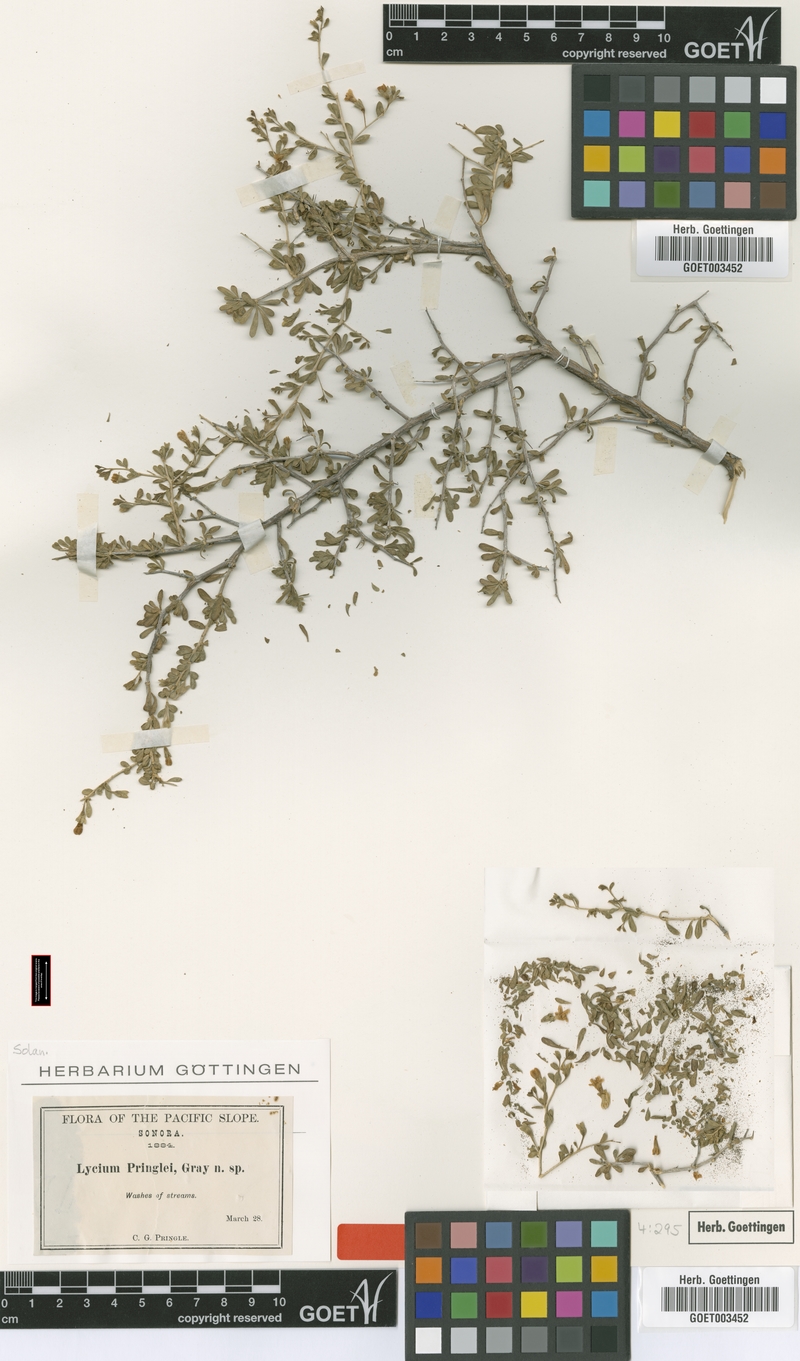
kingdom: Plantae
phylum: Tracheophyta
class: Magnoliopsida
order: Solanales
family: Solanaceae
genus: Lycium
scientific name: Lycium parishii
